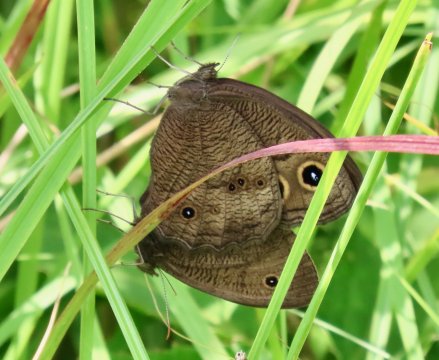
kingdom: Animalia
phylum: Arthropoda
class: Insecta
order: Lepidoptera
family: Nymphalidae
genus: Cercyonis
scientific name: Cercyonis pegala
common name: Common Wood-Nymph
